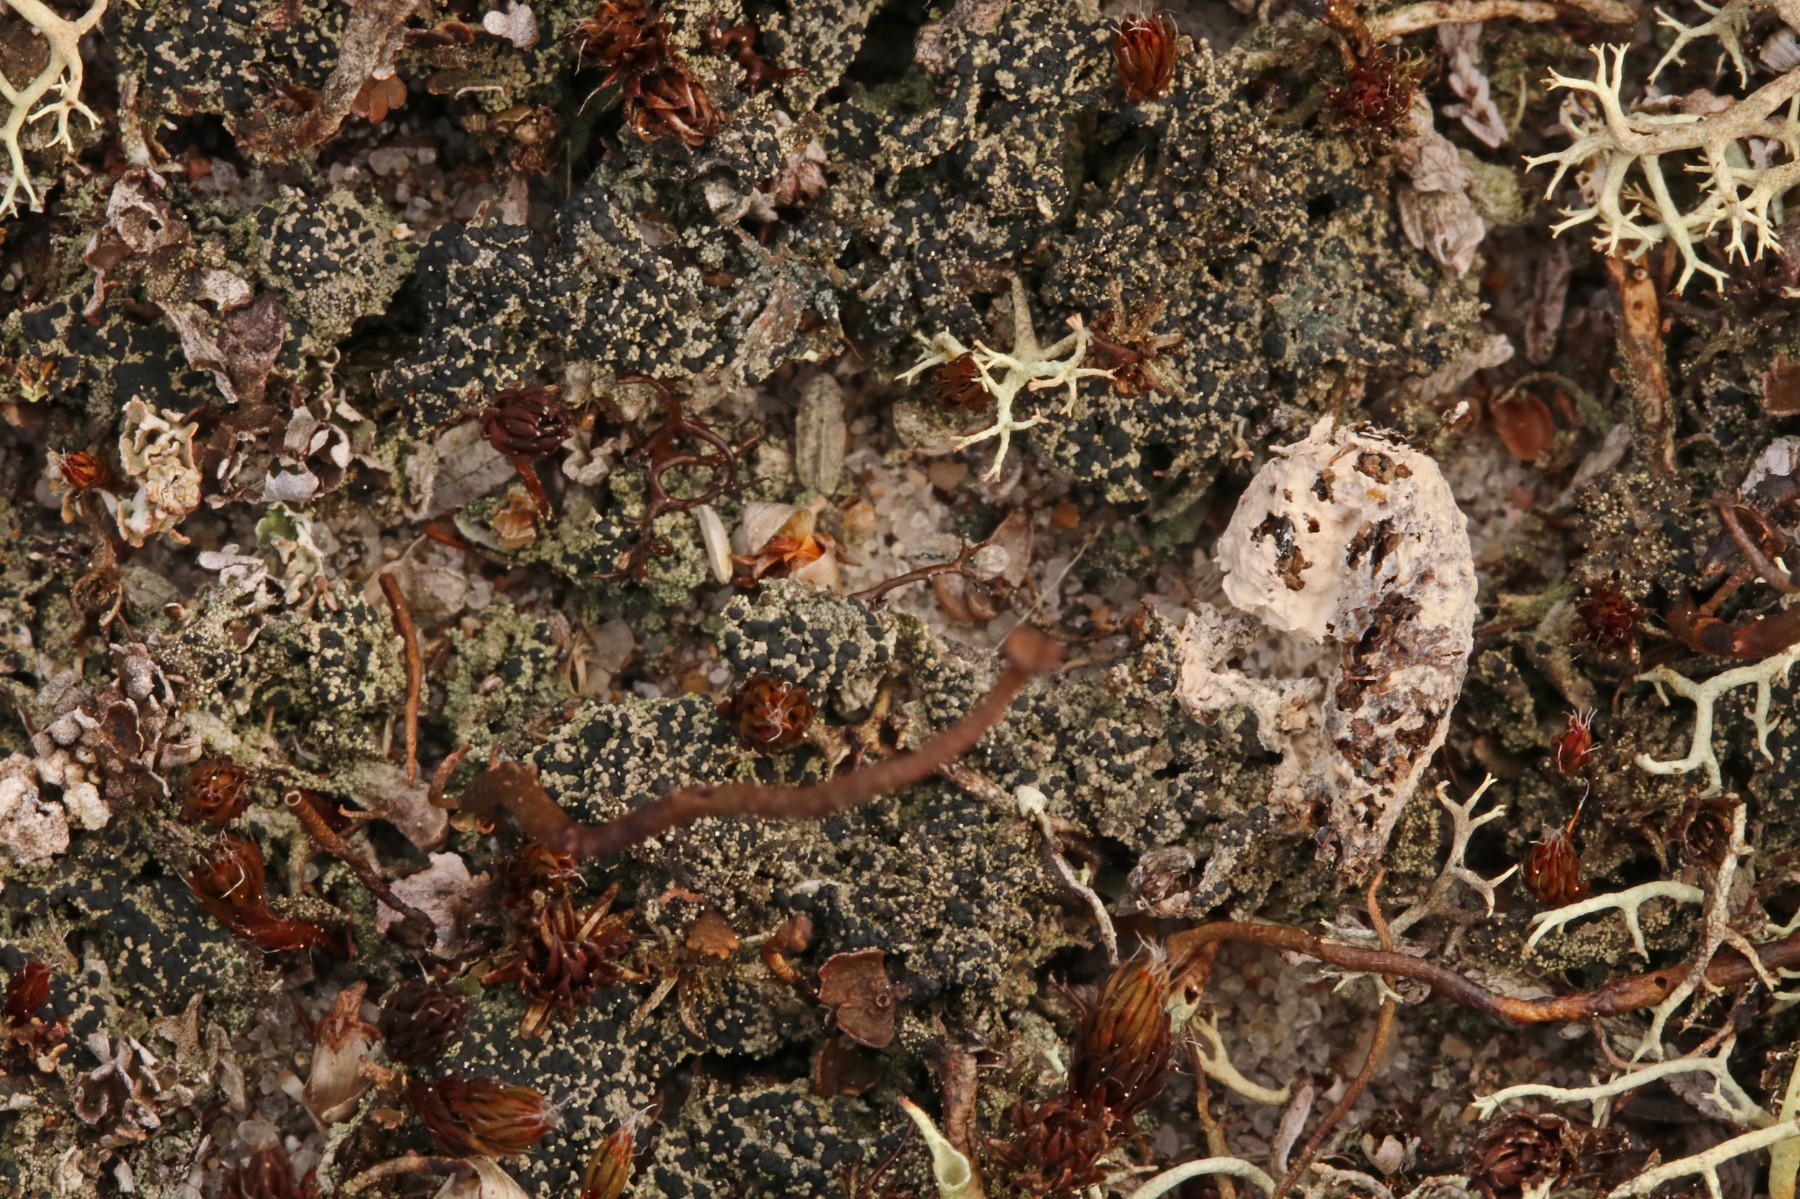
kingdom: Fungi
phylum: Ascomycota
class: Lecanoromycetes
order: Lecanorales
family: Byssolomataceae
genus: Micarea
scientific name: Micarea lignaria
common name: tørve-knaplav
